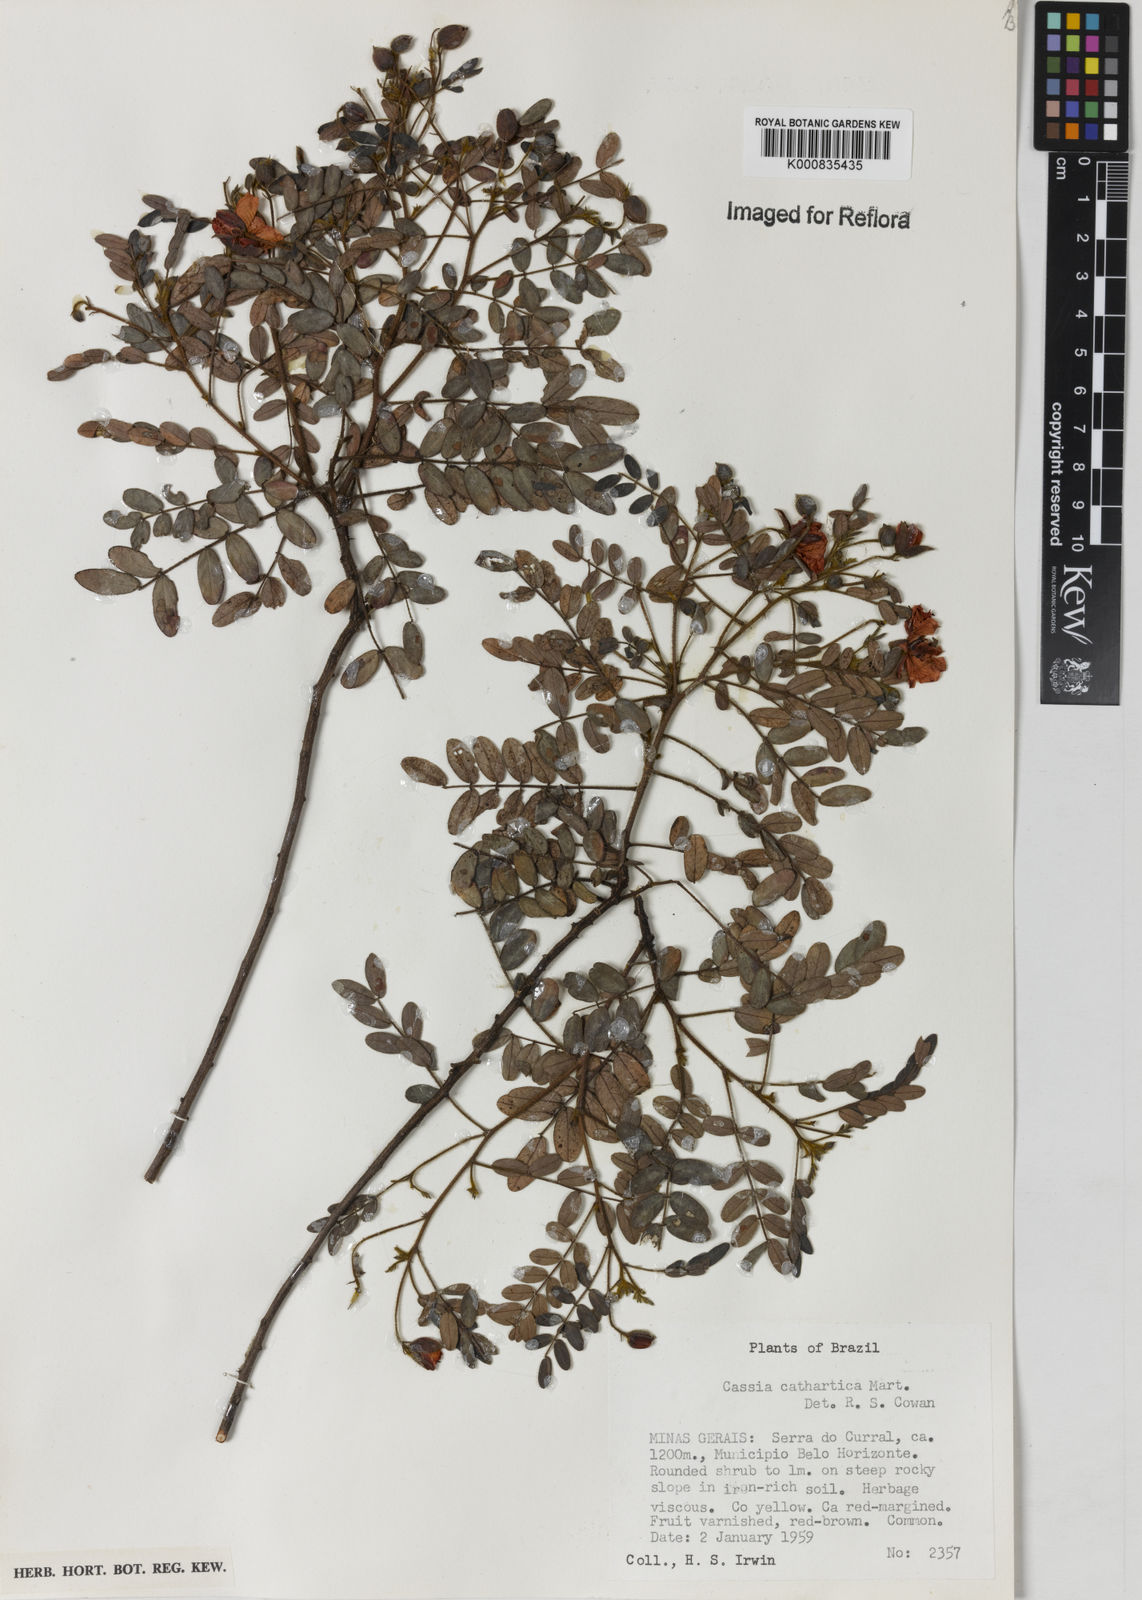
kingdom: Plantae
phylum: Tracheophyta
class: Magnoliopsida
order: Fabales
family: Fabaceae
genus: Chamaecrista
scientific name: Chamaecrista cathartica
